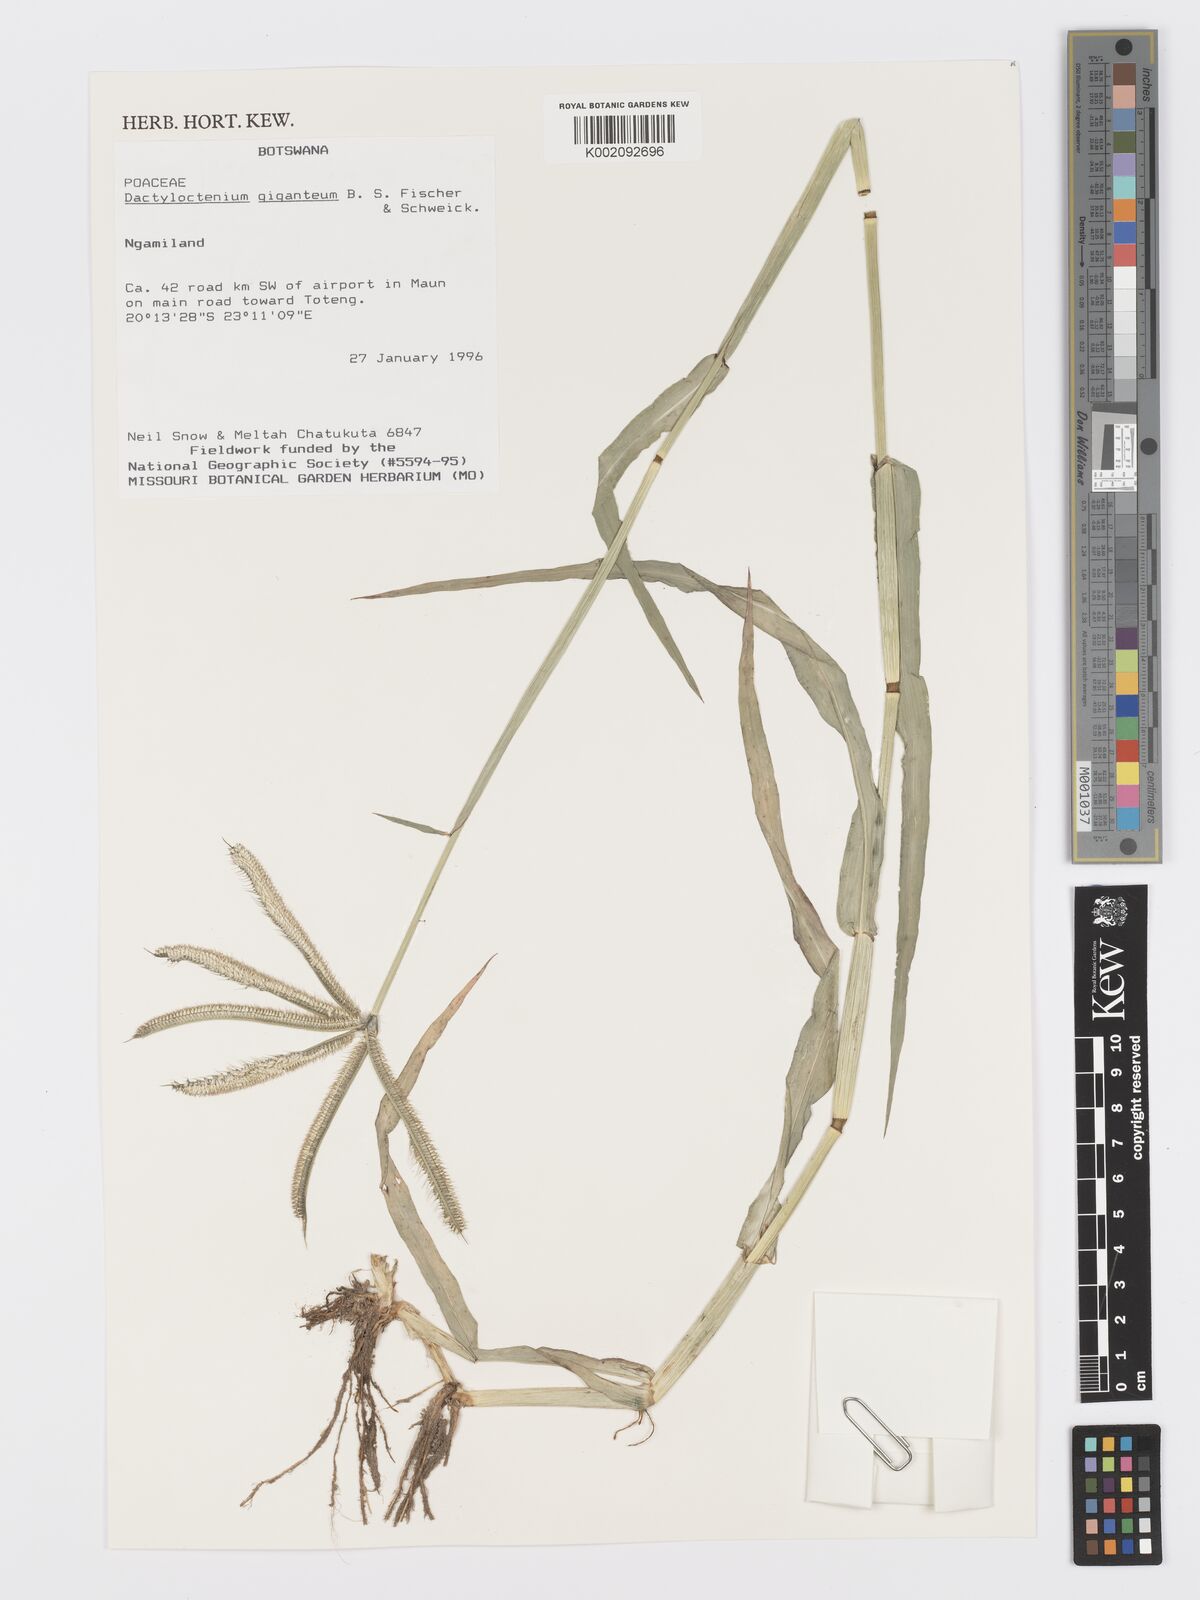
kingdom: Plantae
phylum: Tracheophyta
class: Liliopsida
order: Poales
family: Poaceae
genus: Dactyloctenium
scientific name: Dactyloctenium giganteum
